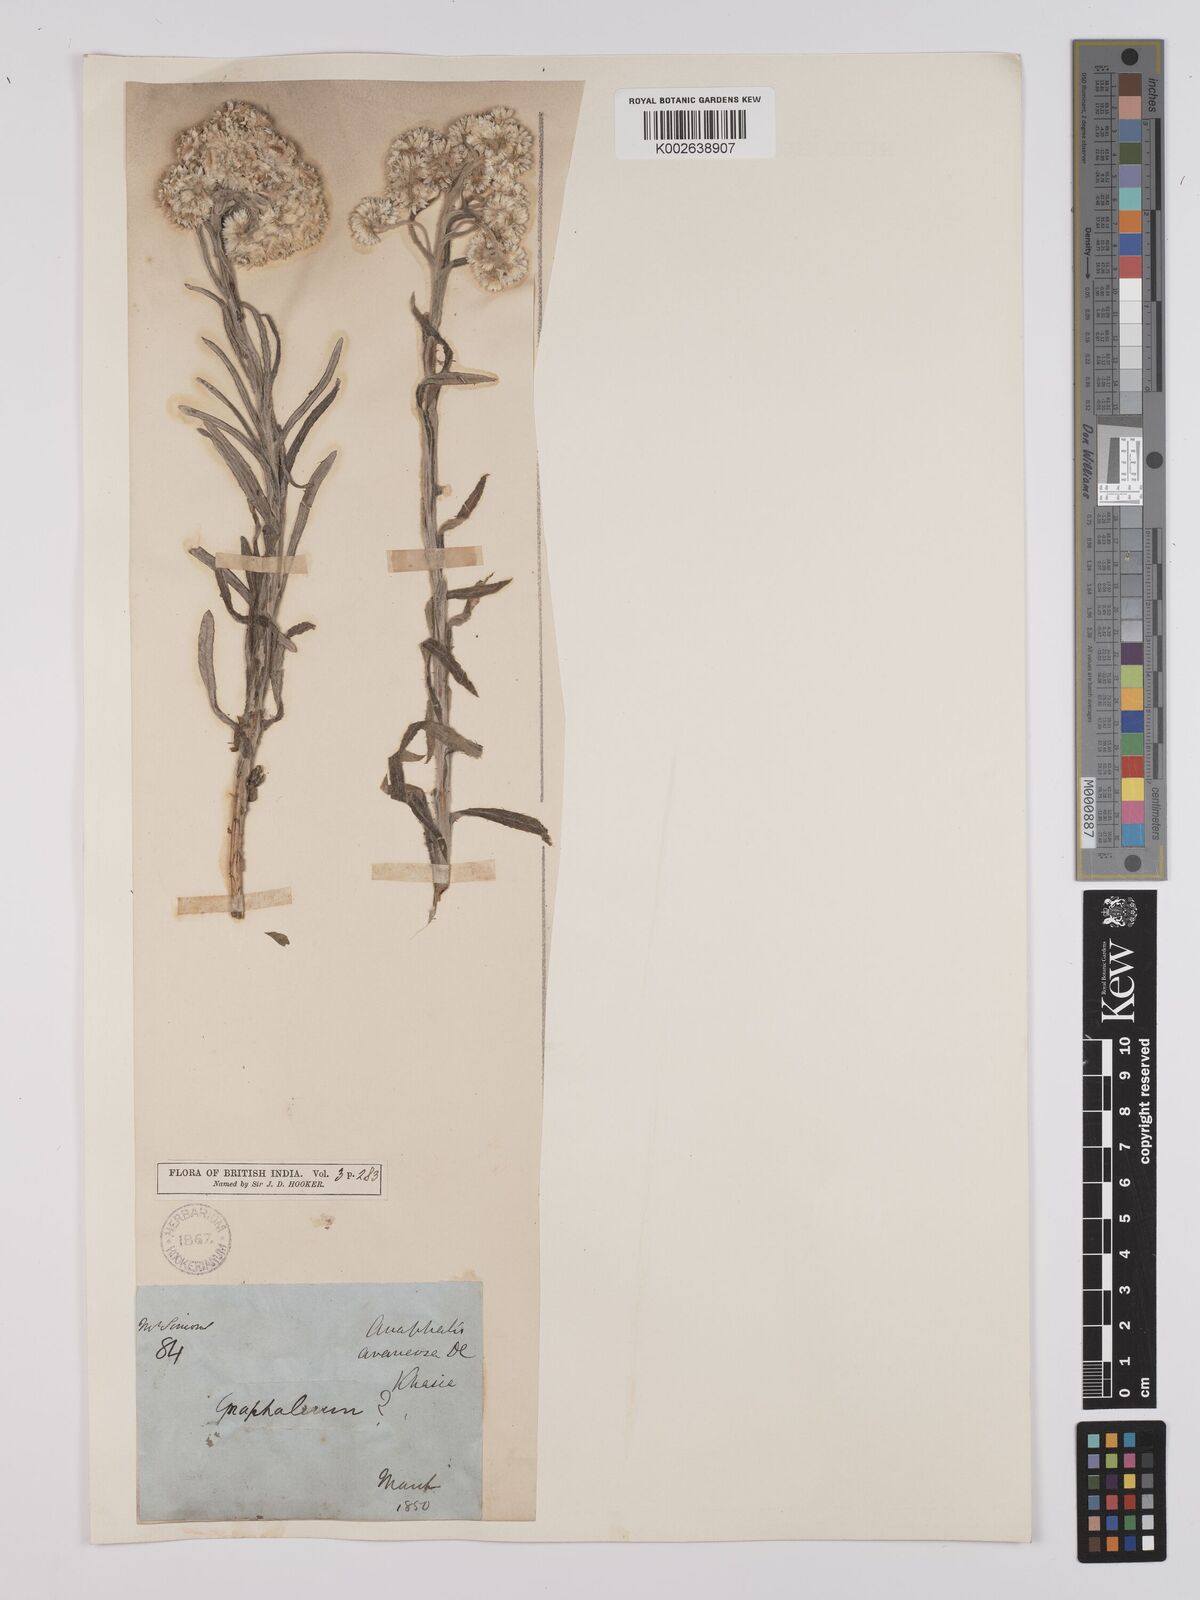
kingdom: Plantae
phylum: Tracheophyta
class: Magnoliopsida
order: Asterales
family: Asteraceae
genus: Anaphalis
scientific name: Anaphalis busua
